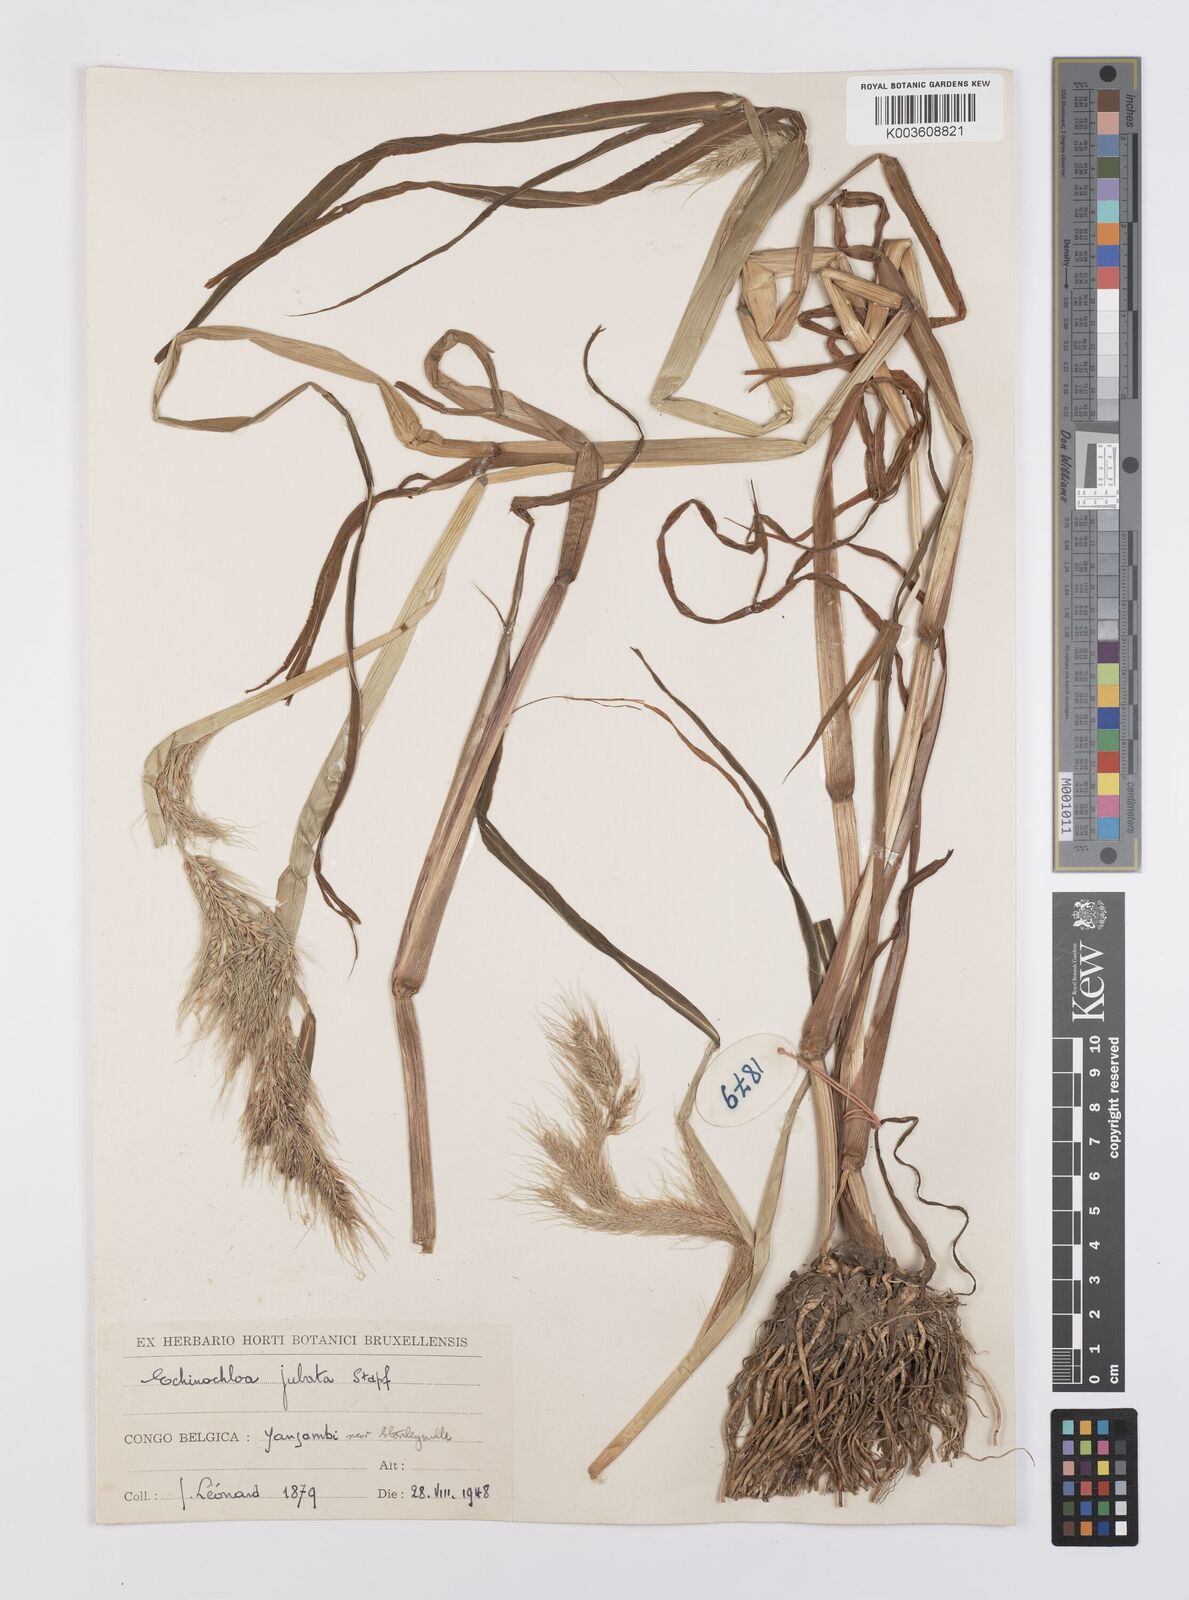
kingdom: Plantae
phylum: Tracheophyta
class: Liliopsida
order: Poales
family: Poaceae
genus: Echinochloa
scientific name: Echinochloa jubata
